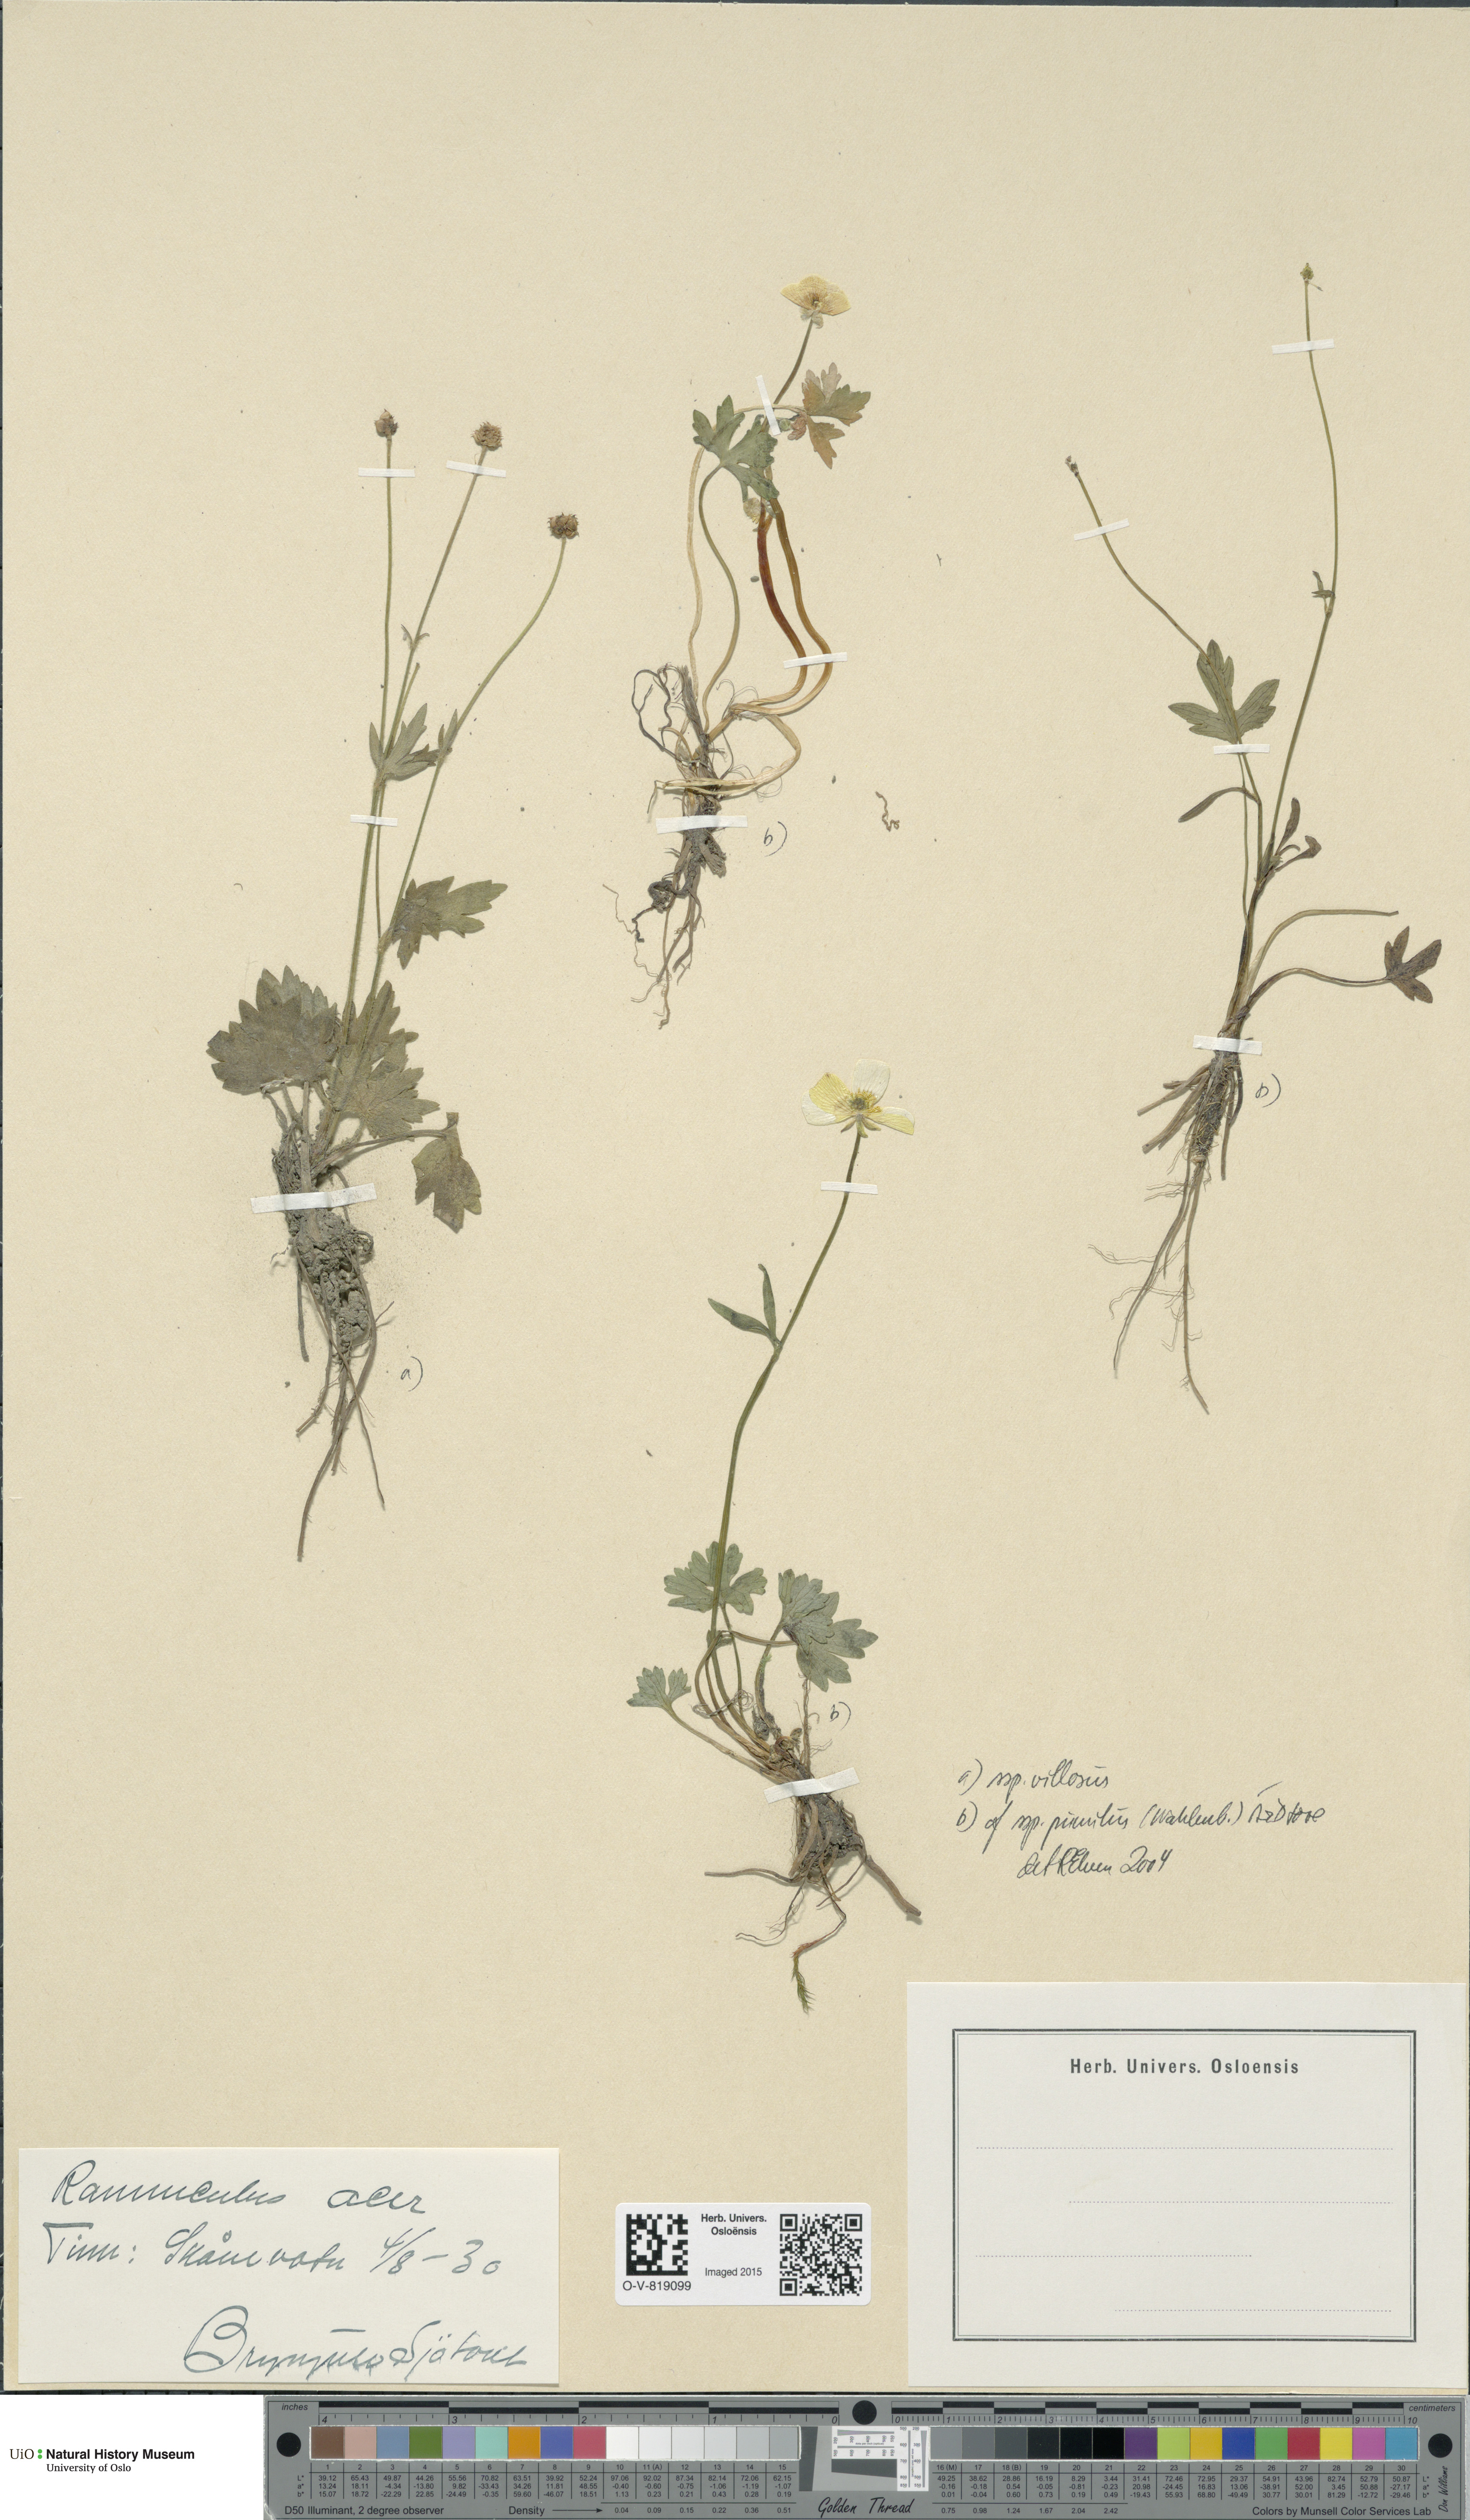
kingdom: Plantae
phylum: Tracheophyta
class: Magnoliopsida
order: Ranunculales
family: Ranunculaceae
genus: Ranunculus
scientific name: Ranunculus propinquus
